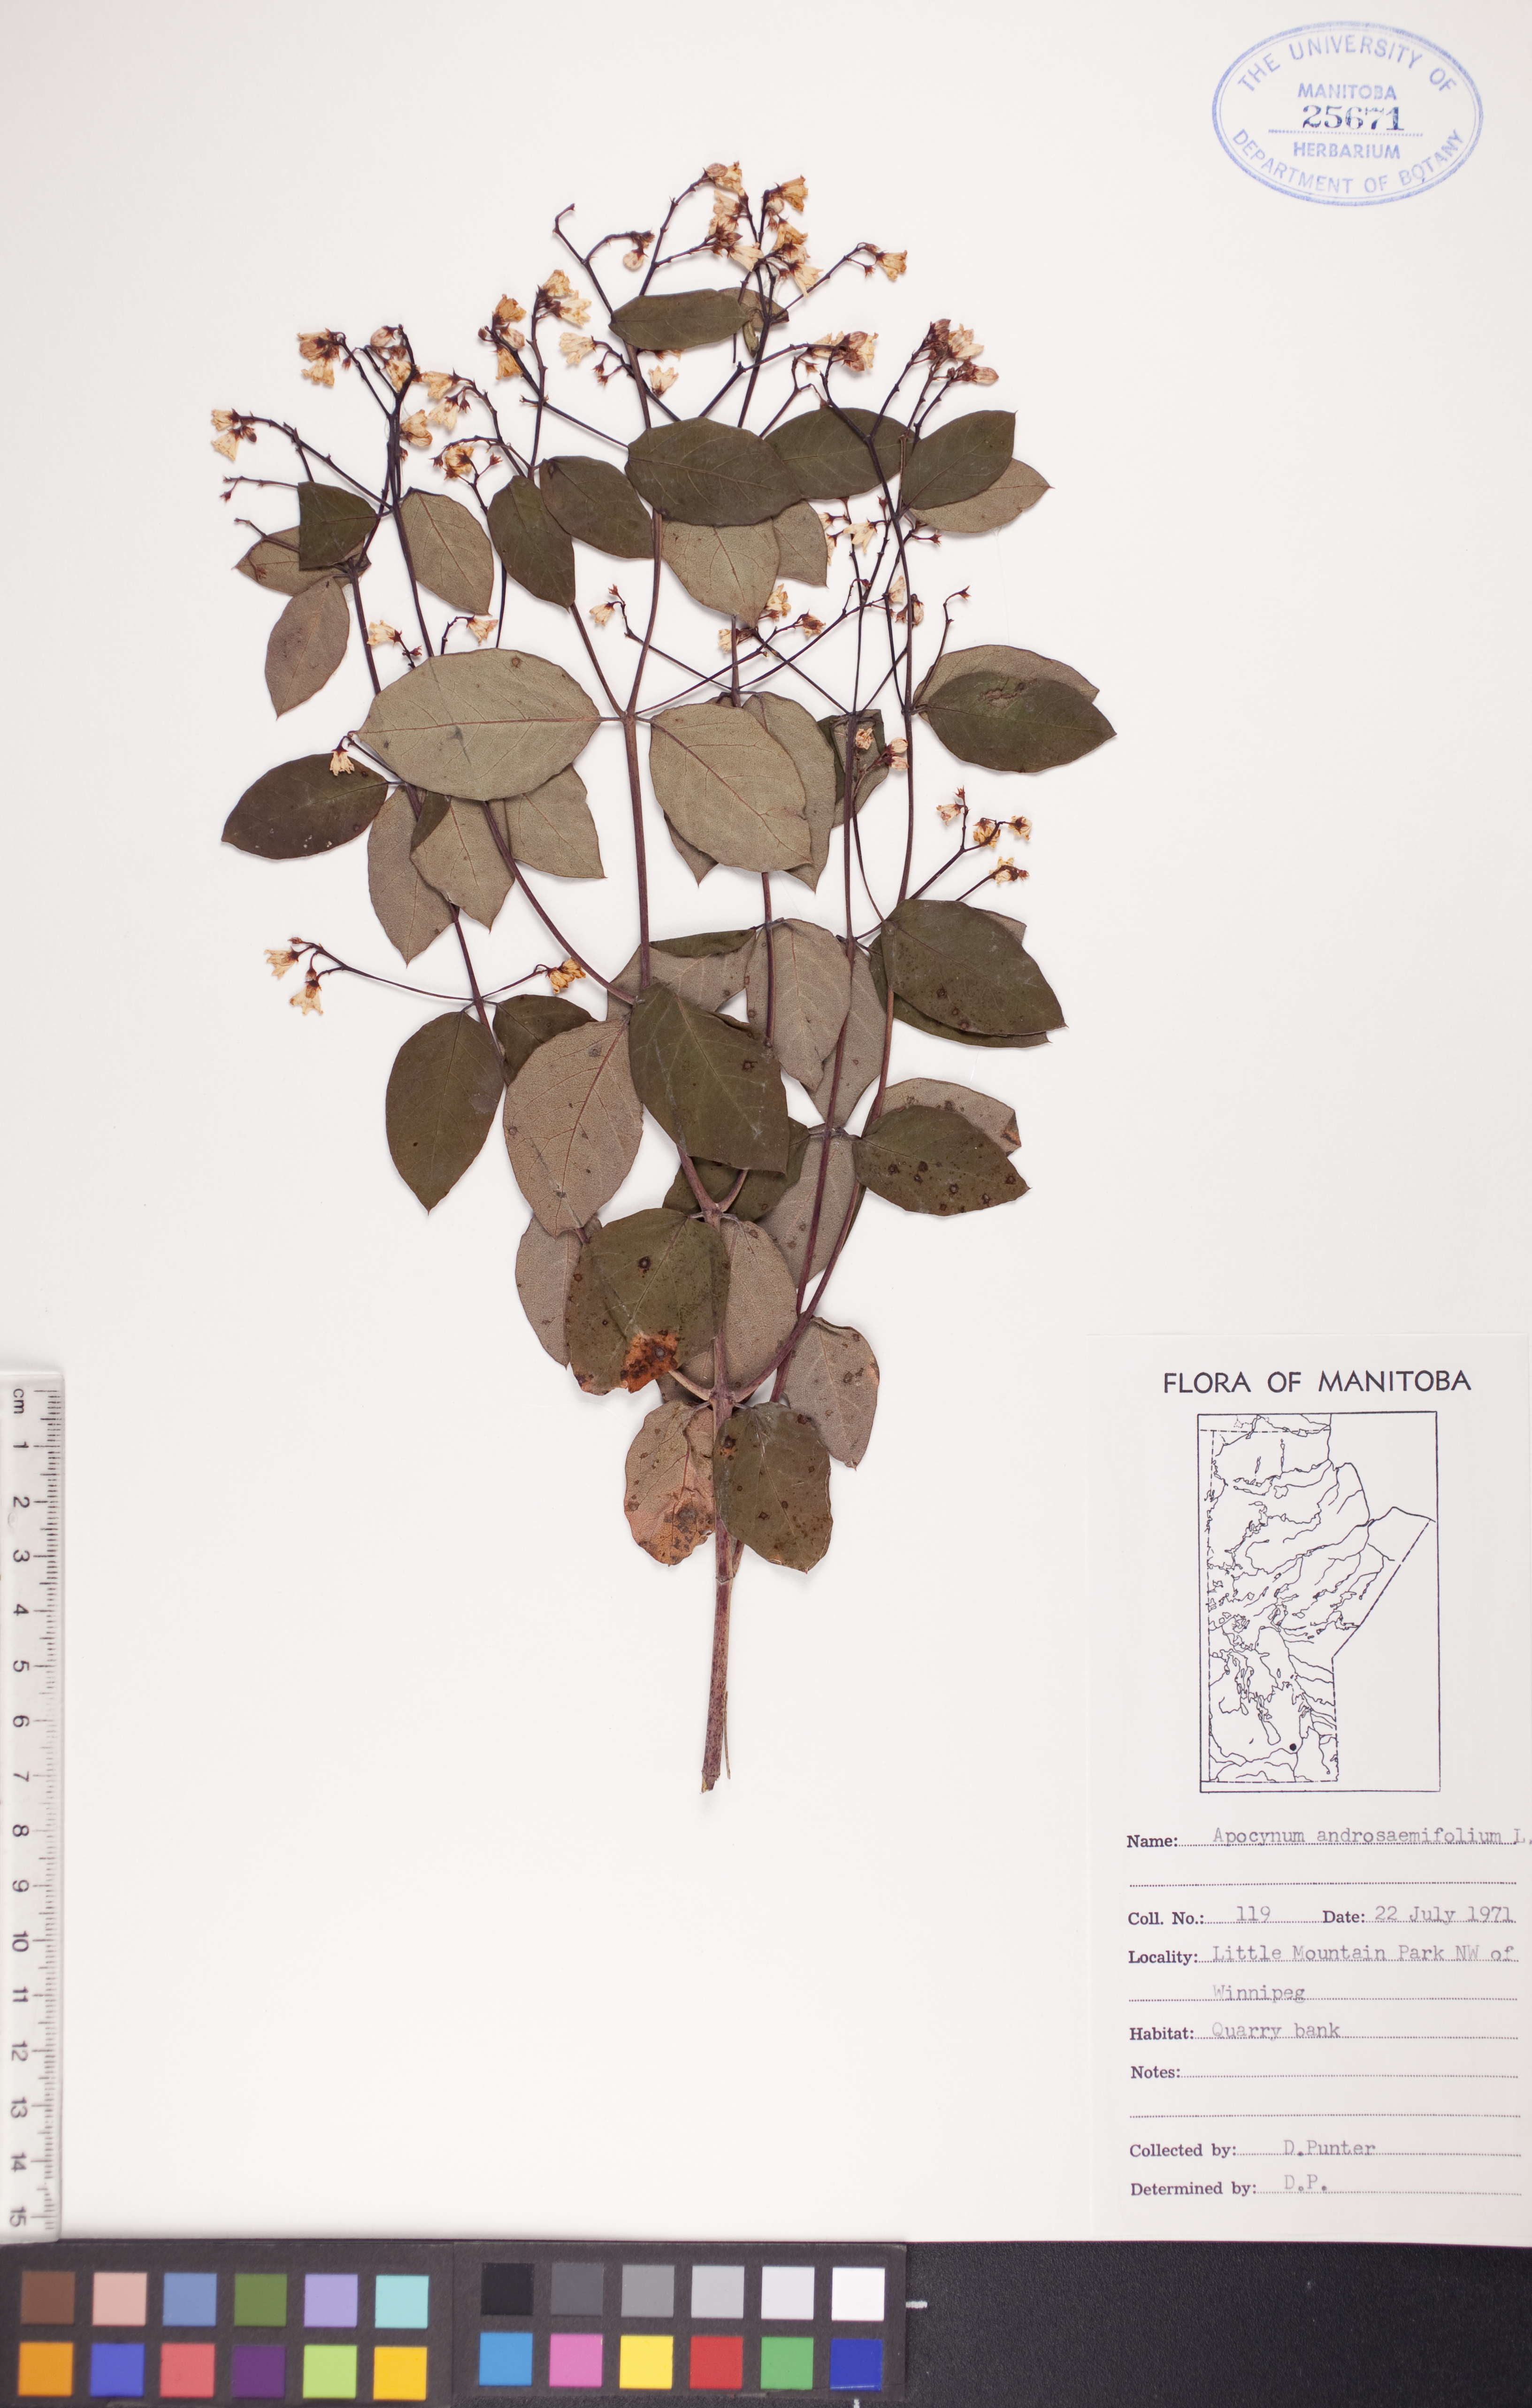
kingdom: Plantae
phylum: Tracheophyta
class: Magnoliopsida
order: Gentianales
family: Apocynaceae
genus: Apocynum
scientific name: Apocynum androsaemifolium
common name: Spreading dogbane
